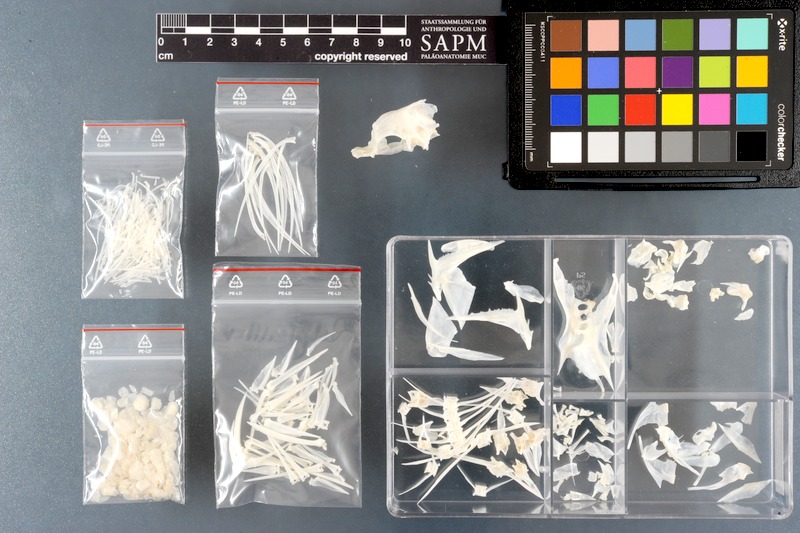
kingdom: Animalia
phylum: Chordata
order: Perciformes
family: Pomacanthidae
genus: Holacanthus
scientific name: Holacanthus ciliaris
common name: Queen angelfish
